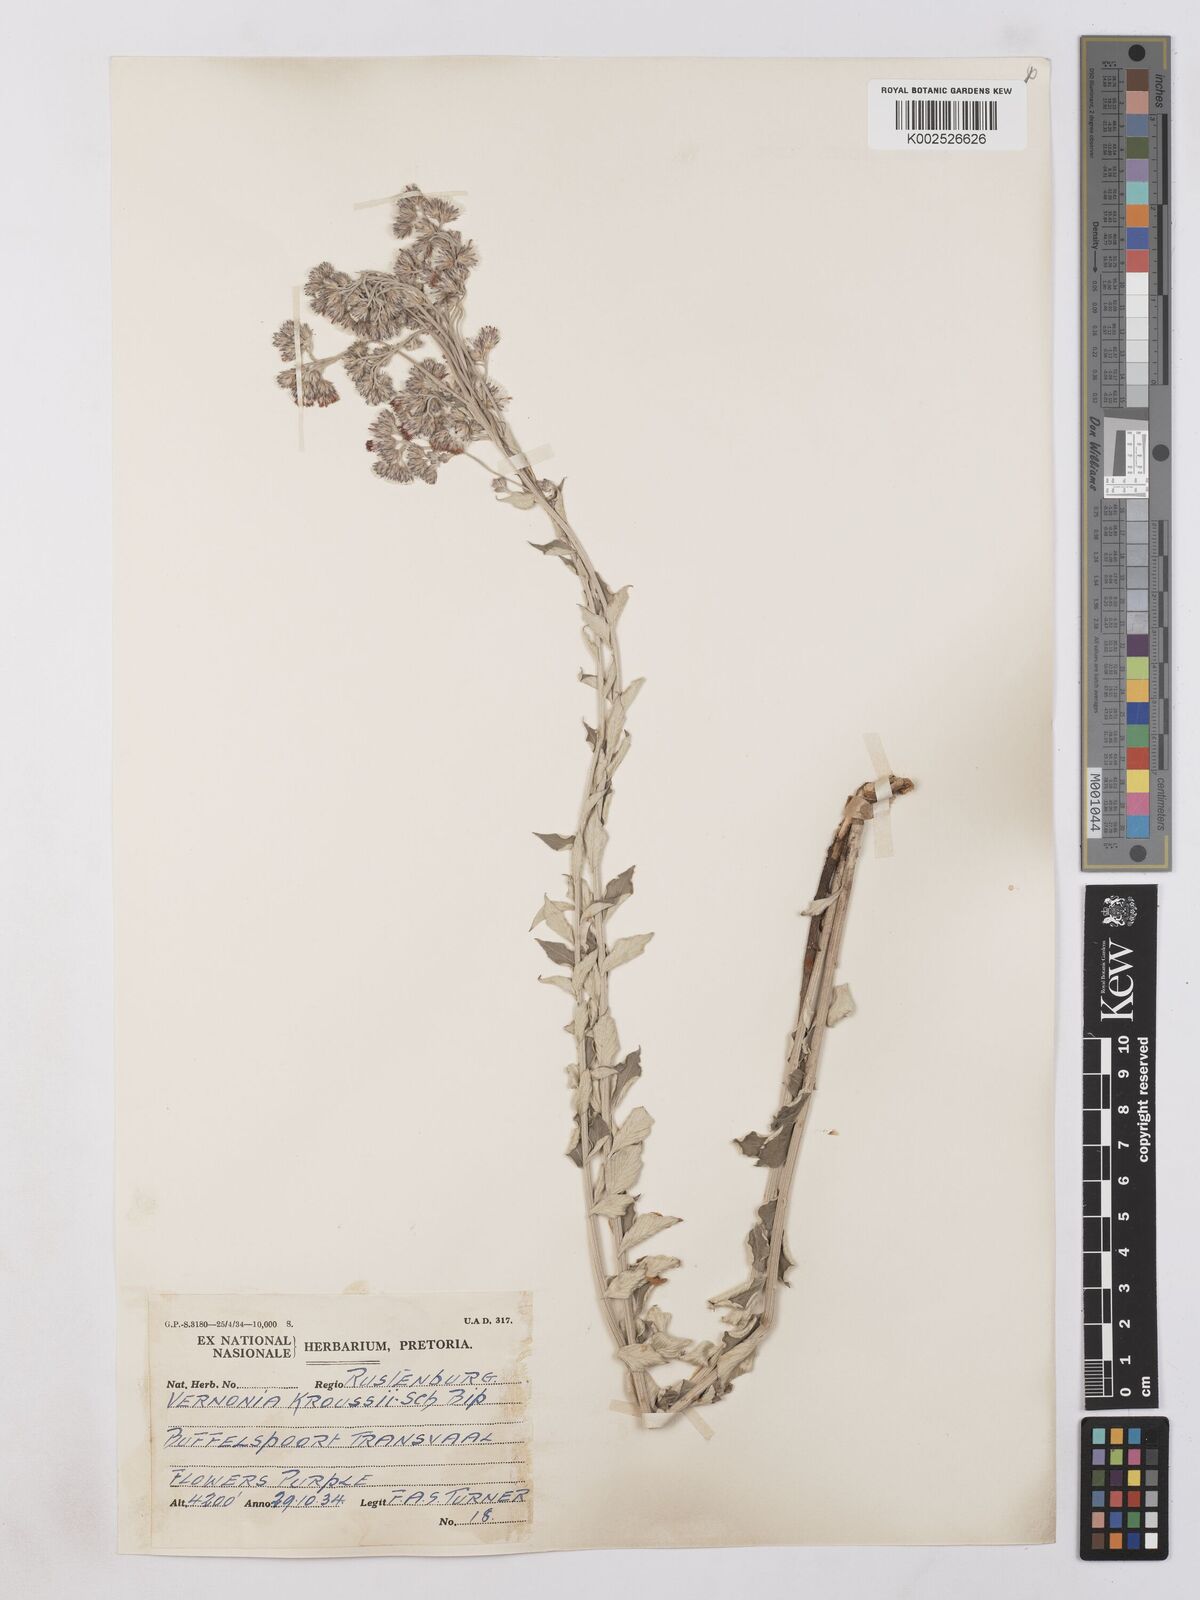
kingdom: Plantae
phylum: Tracheophyta
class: Magnoliopsida
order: Asterales
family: Asteraceae
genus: Hilliardiella
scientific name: Hilliardiella oligocephala
